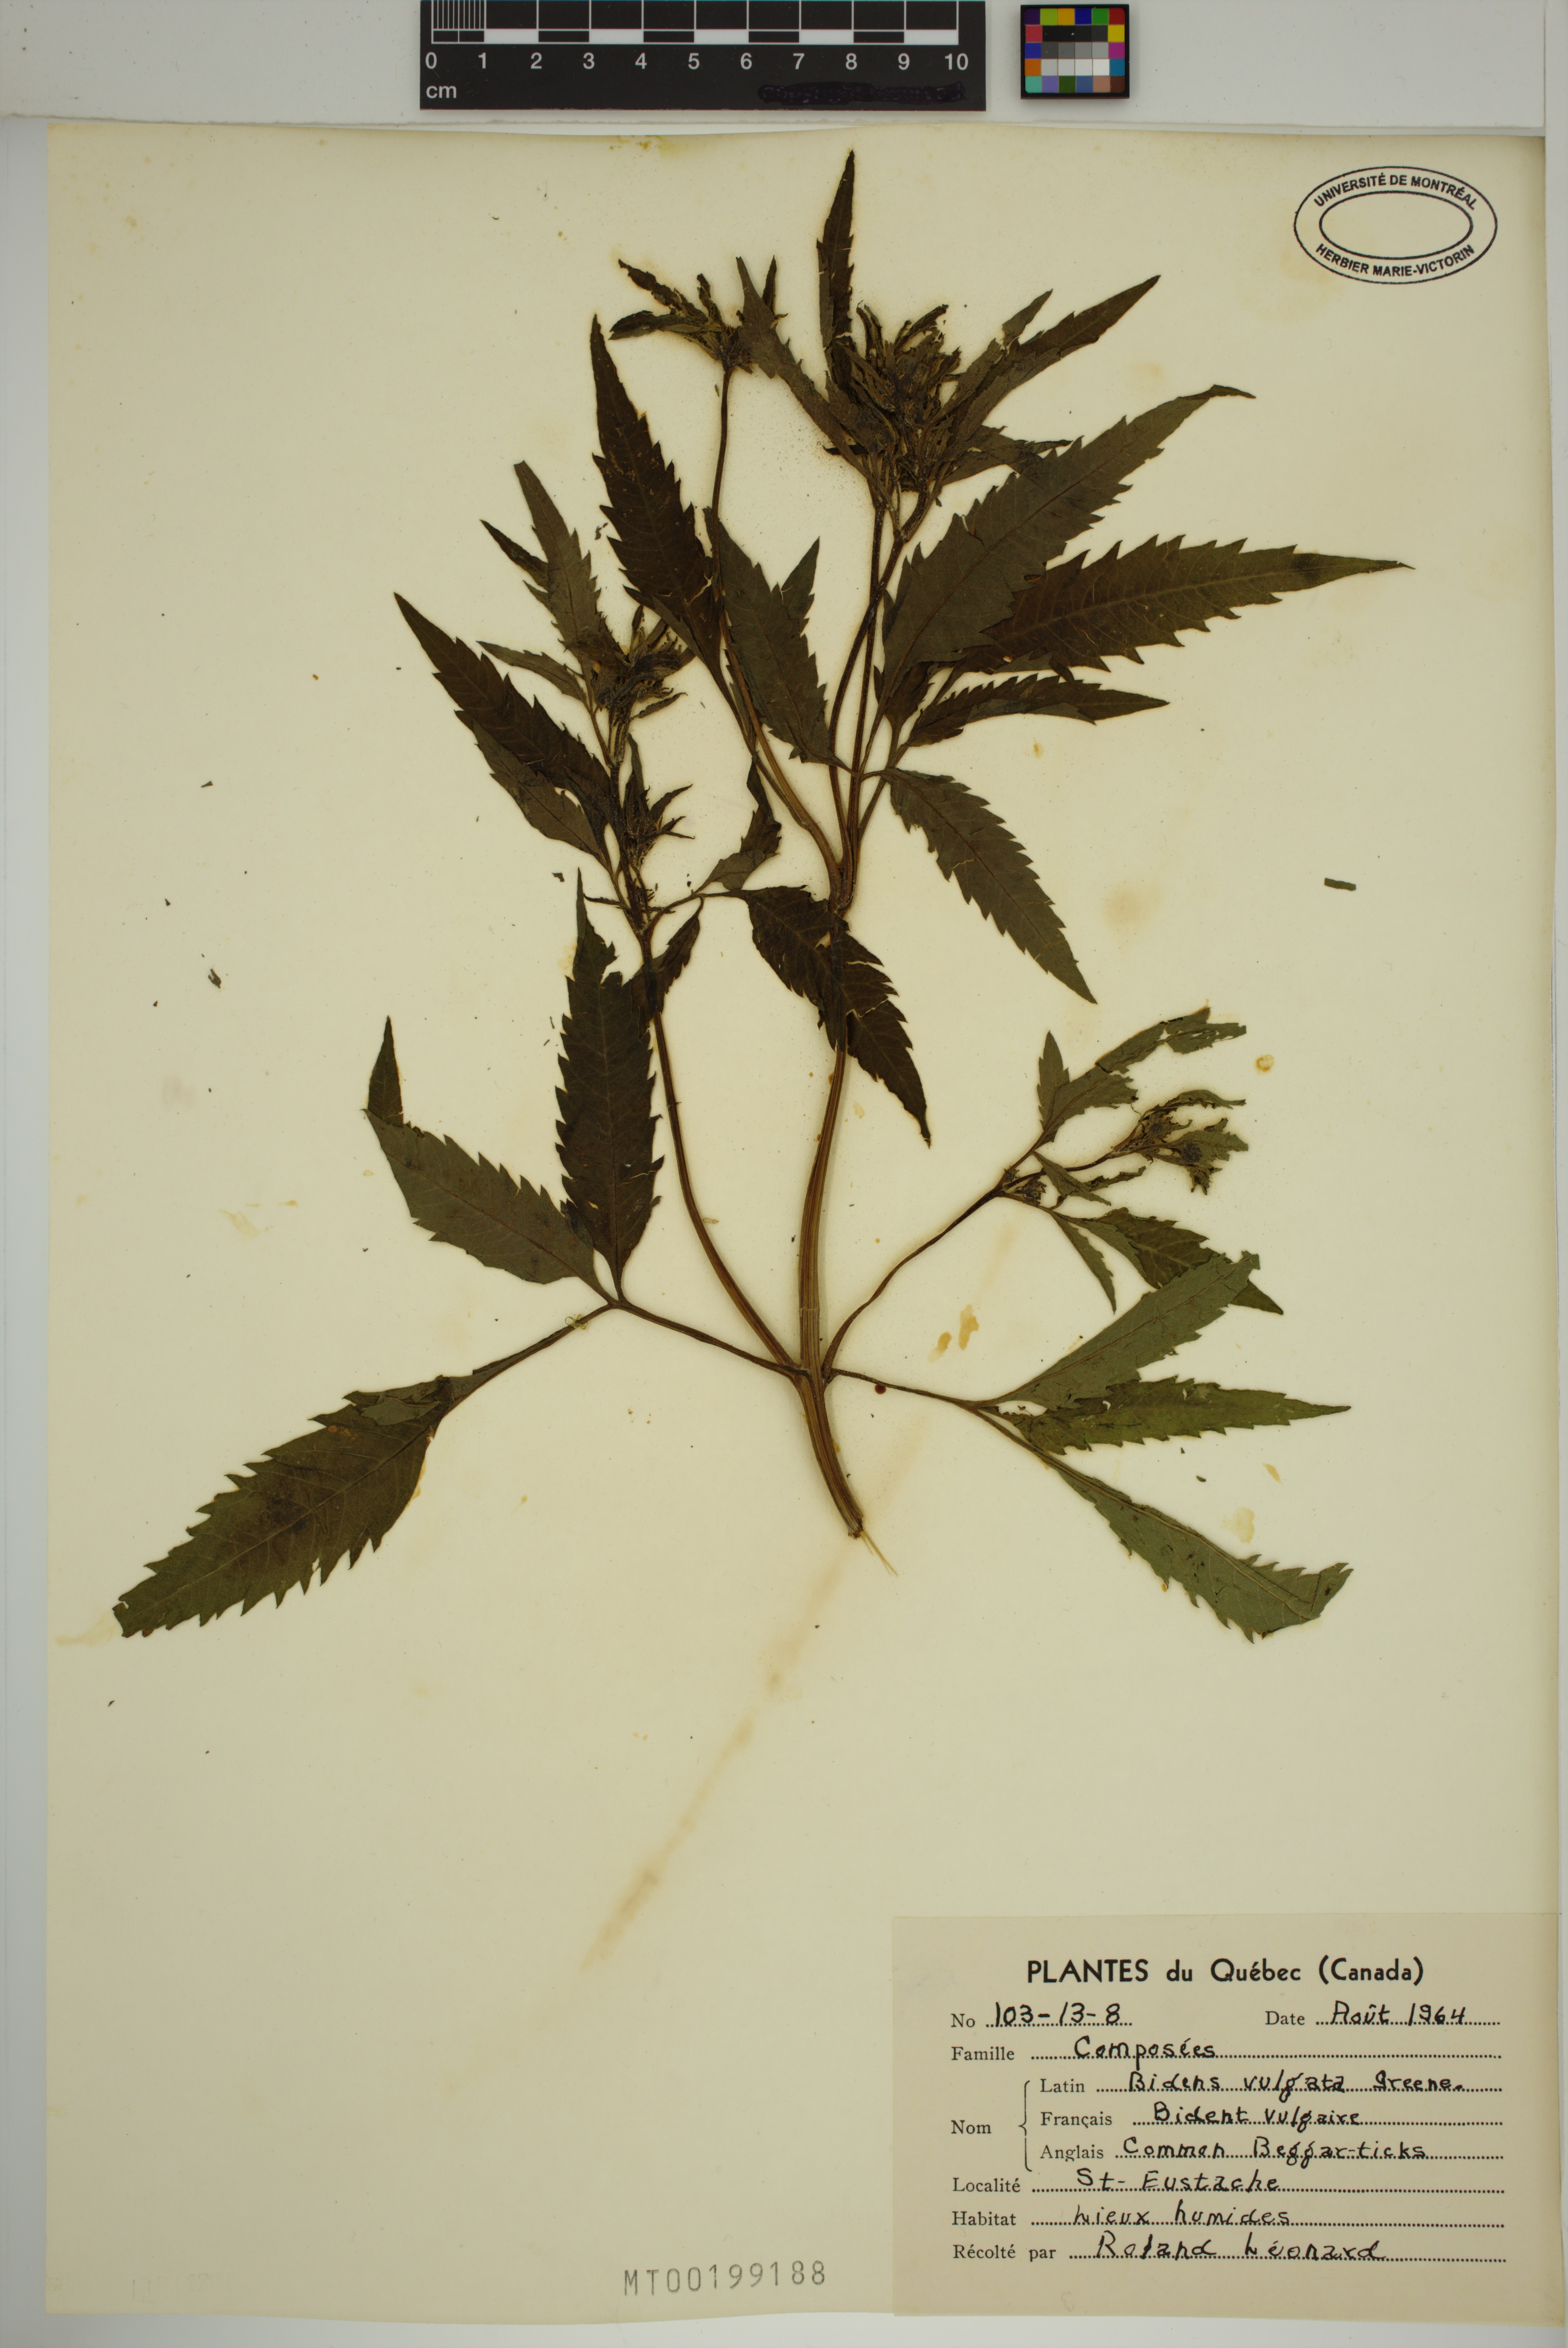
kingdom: Plantae
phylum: Tracheophyta
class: Magnoliopsida
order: Asterales
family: Asteraceae
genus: Bidens
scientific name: Bidens vulgata
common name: Tall beggarticks
